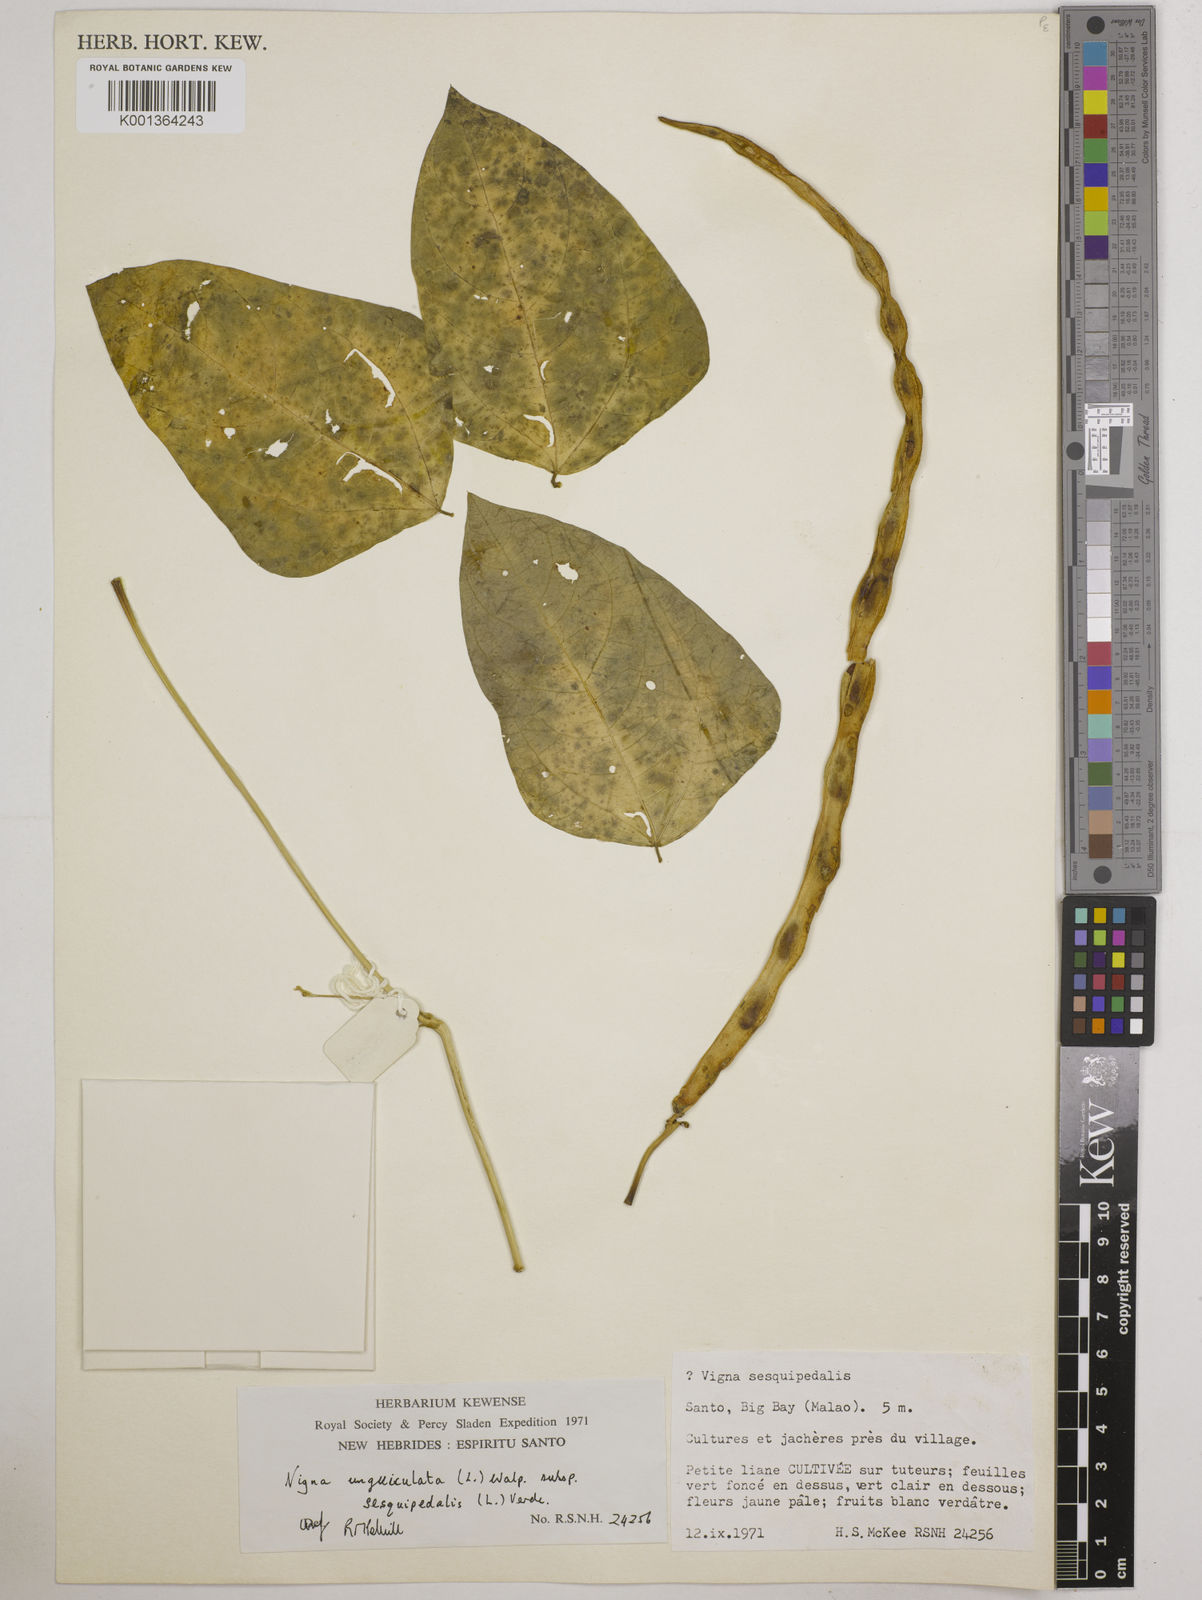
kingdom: Plantae
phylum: Tracheophyta
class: Magnoliopsida
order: Fabales
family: Fabaceae
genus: Vigna
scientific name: Vigna unguiculata
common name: Cowpea
